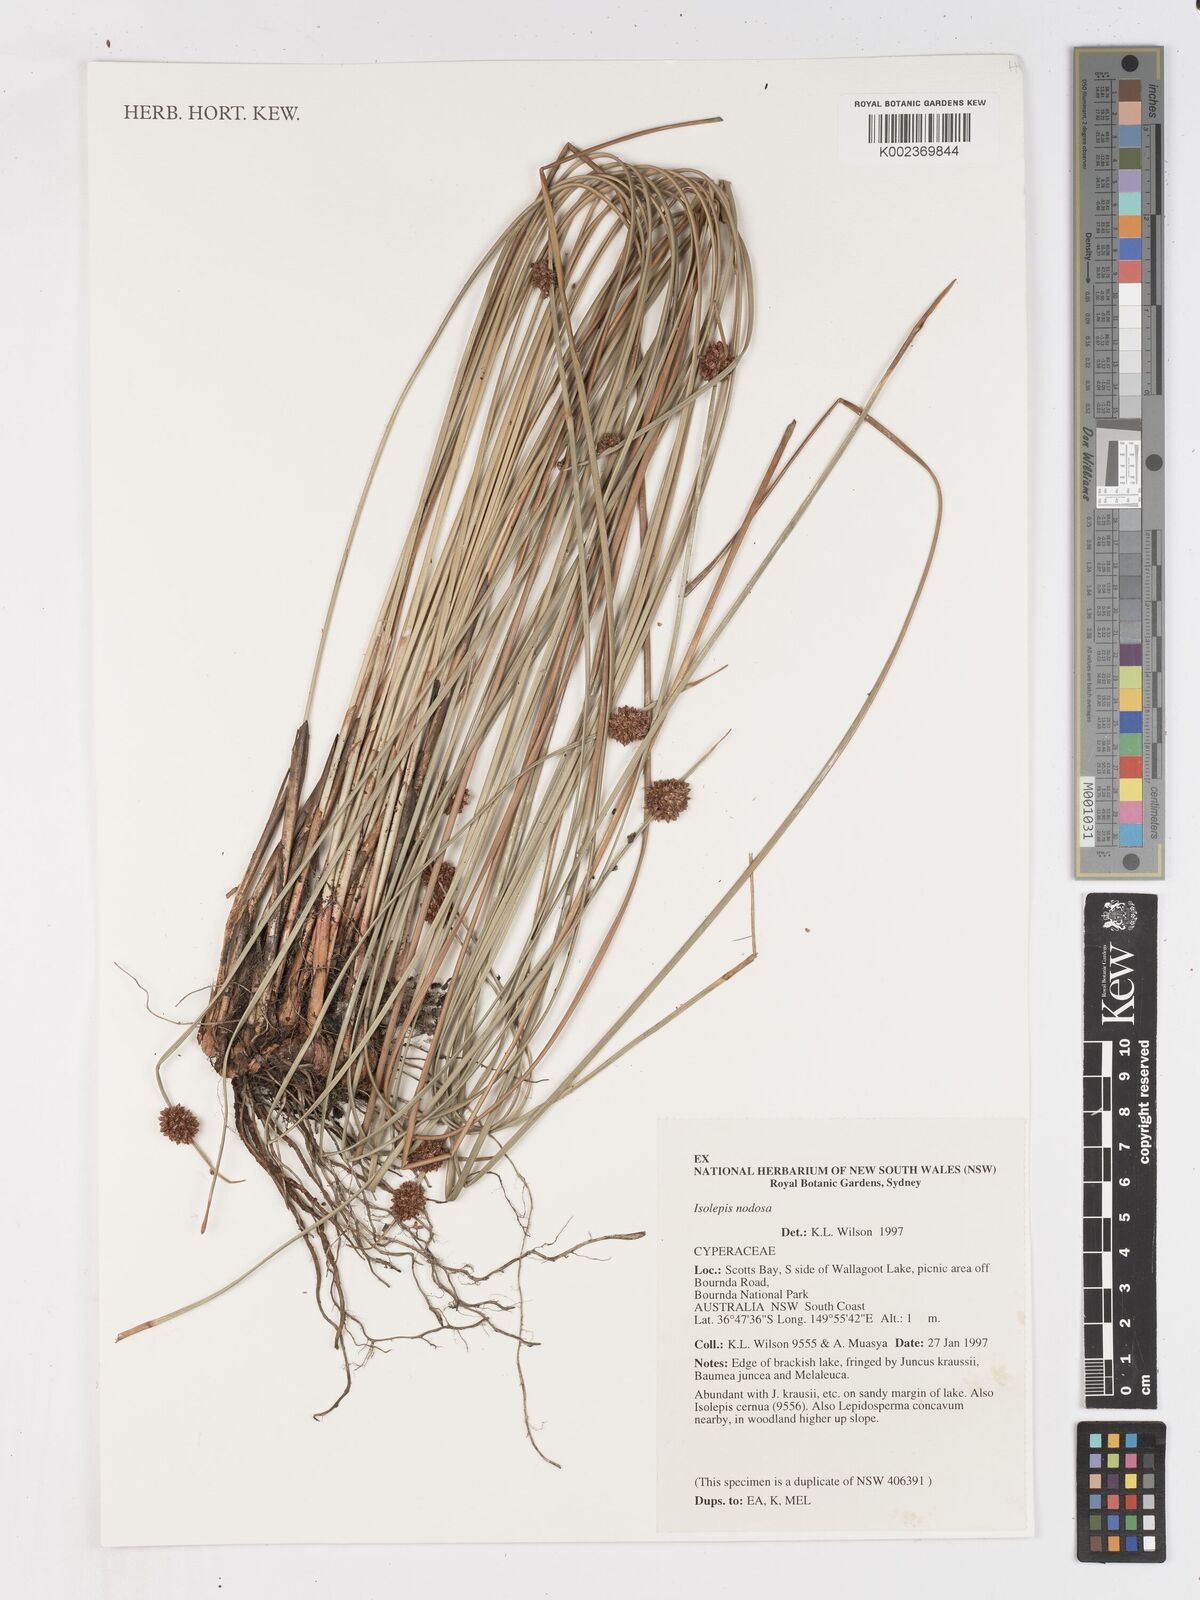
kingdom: Plantae
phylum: Tracheophyta
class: Liliopsida
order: Poales
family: Cyperaceae
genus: Ficinia
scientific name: Ficinia nodosa
